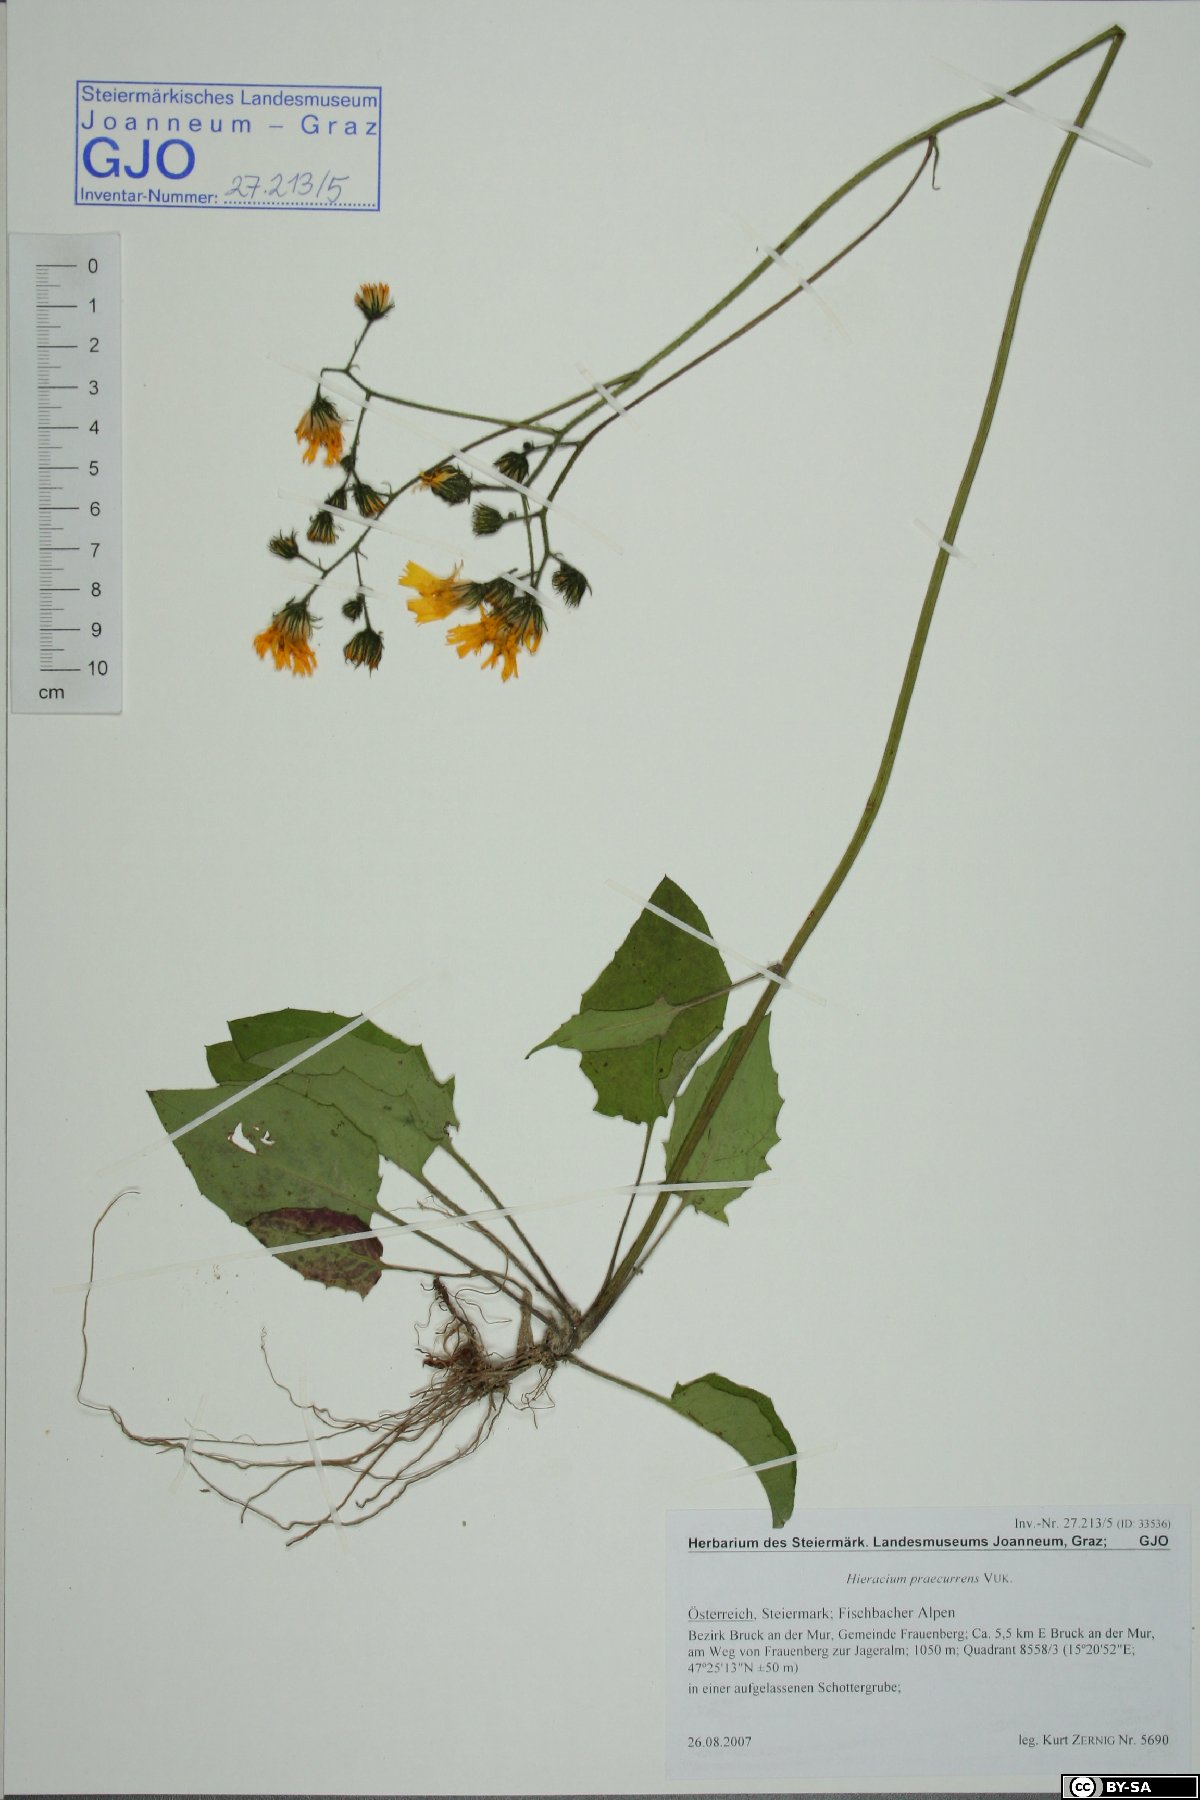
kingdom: Plantae
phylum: Tracheophyta
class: Magnoliopsida
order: Asterales
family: Asteraceae
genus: Hieracium
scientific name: Hieracium rotundatum
